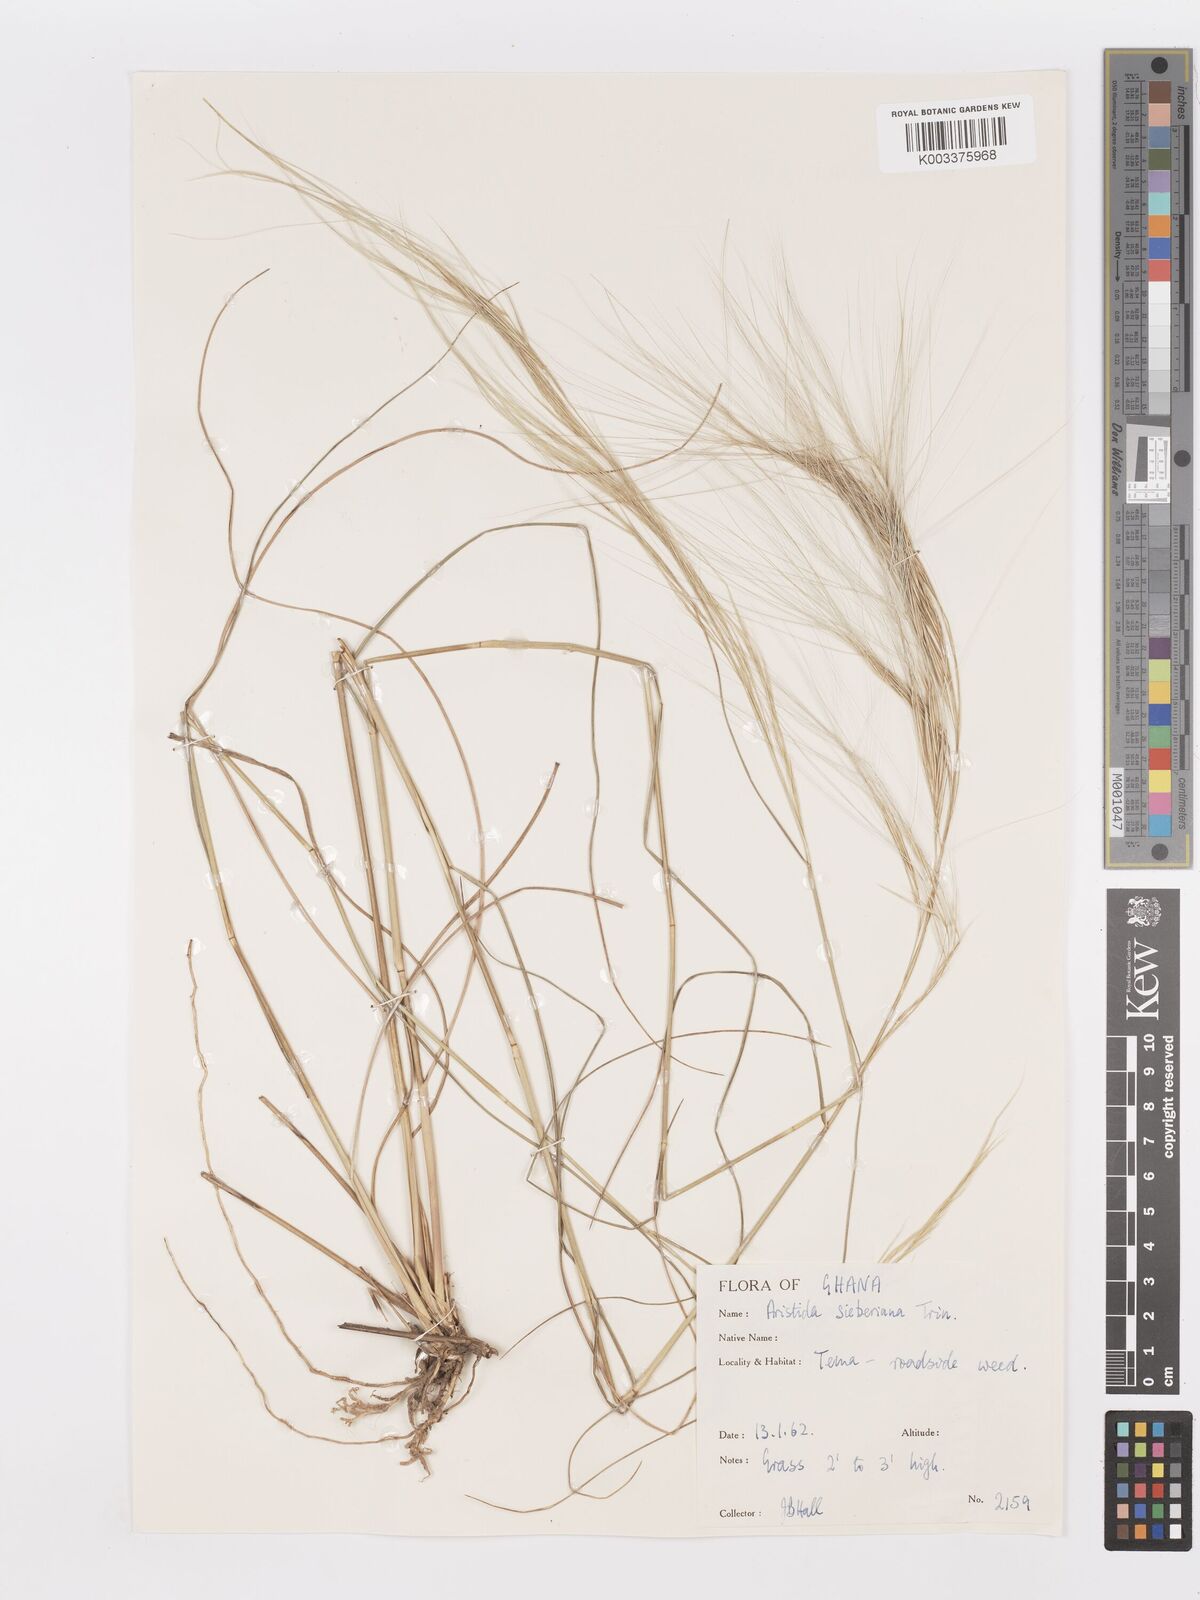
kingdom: Plantae
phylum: Tracheophyta
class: Liliopsida
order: Poales
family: Poaceae
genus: Aristida
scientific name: Aristida sieberiana
